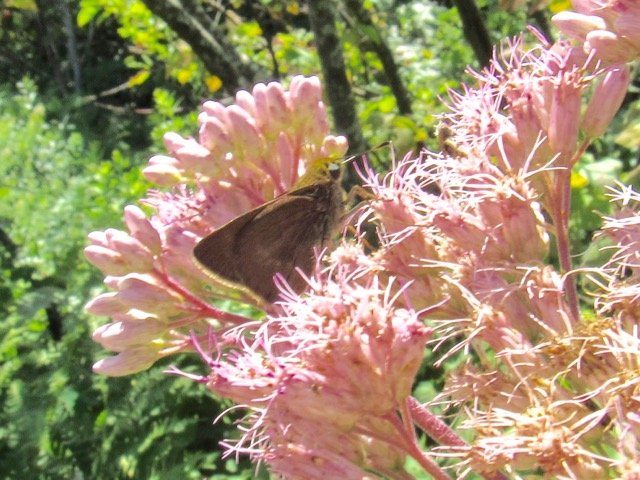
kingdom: Animalia
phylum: Arthropoda
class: Insecta
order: Lepidoptera
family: Hesperiidae
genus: Polites
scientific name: Polites egeremet
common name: Northern Broken-Dash
